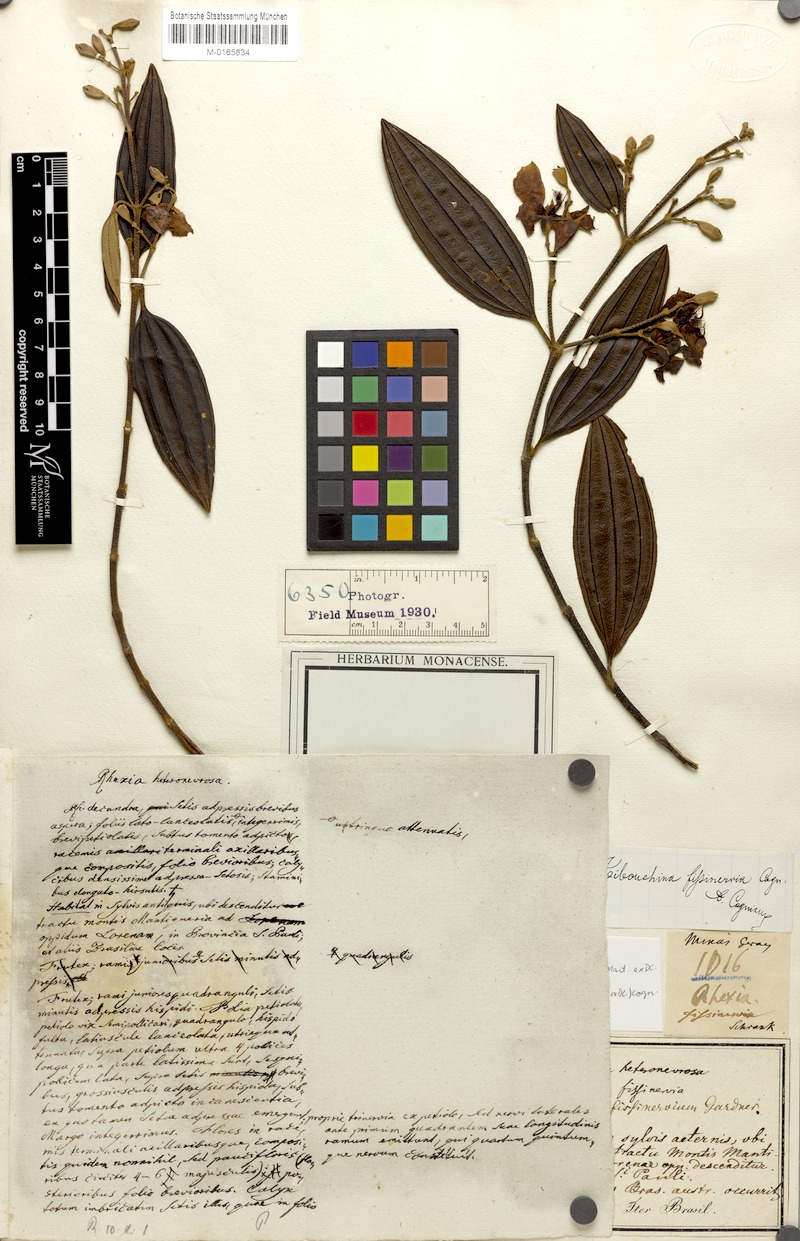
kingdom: Plantae
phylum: Tracheophyta
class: Magnoliopsida
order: Myrtales
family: Melastomataceae
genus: Pleroma
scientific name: Pleroma fissinervium
